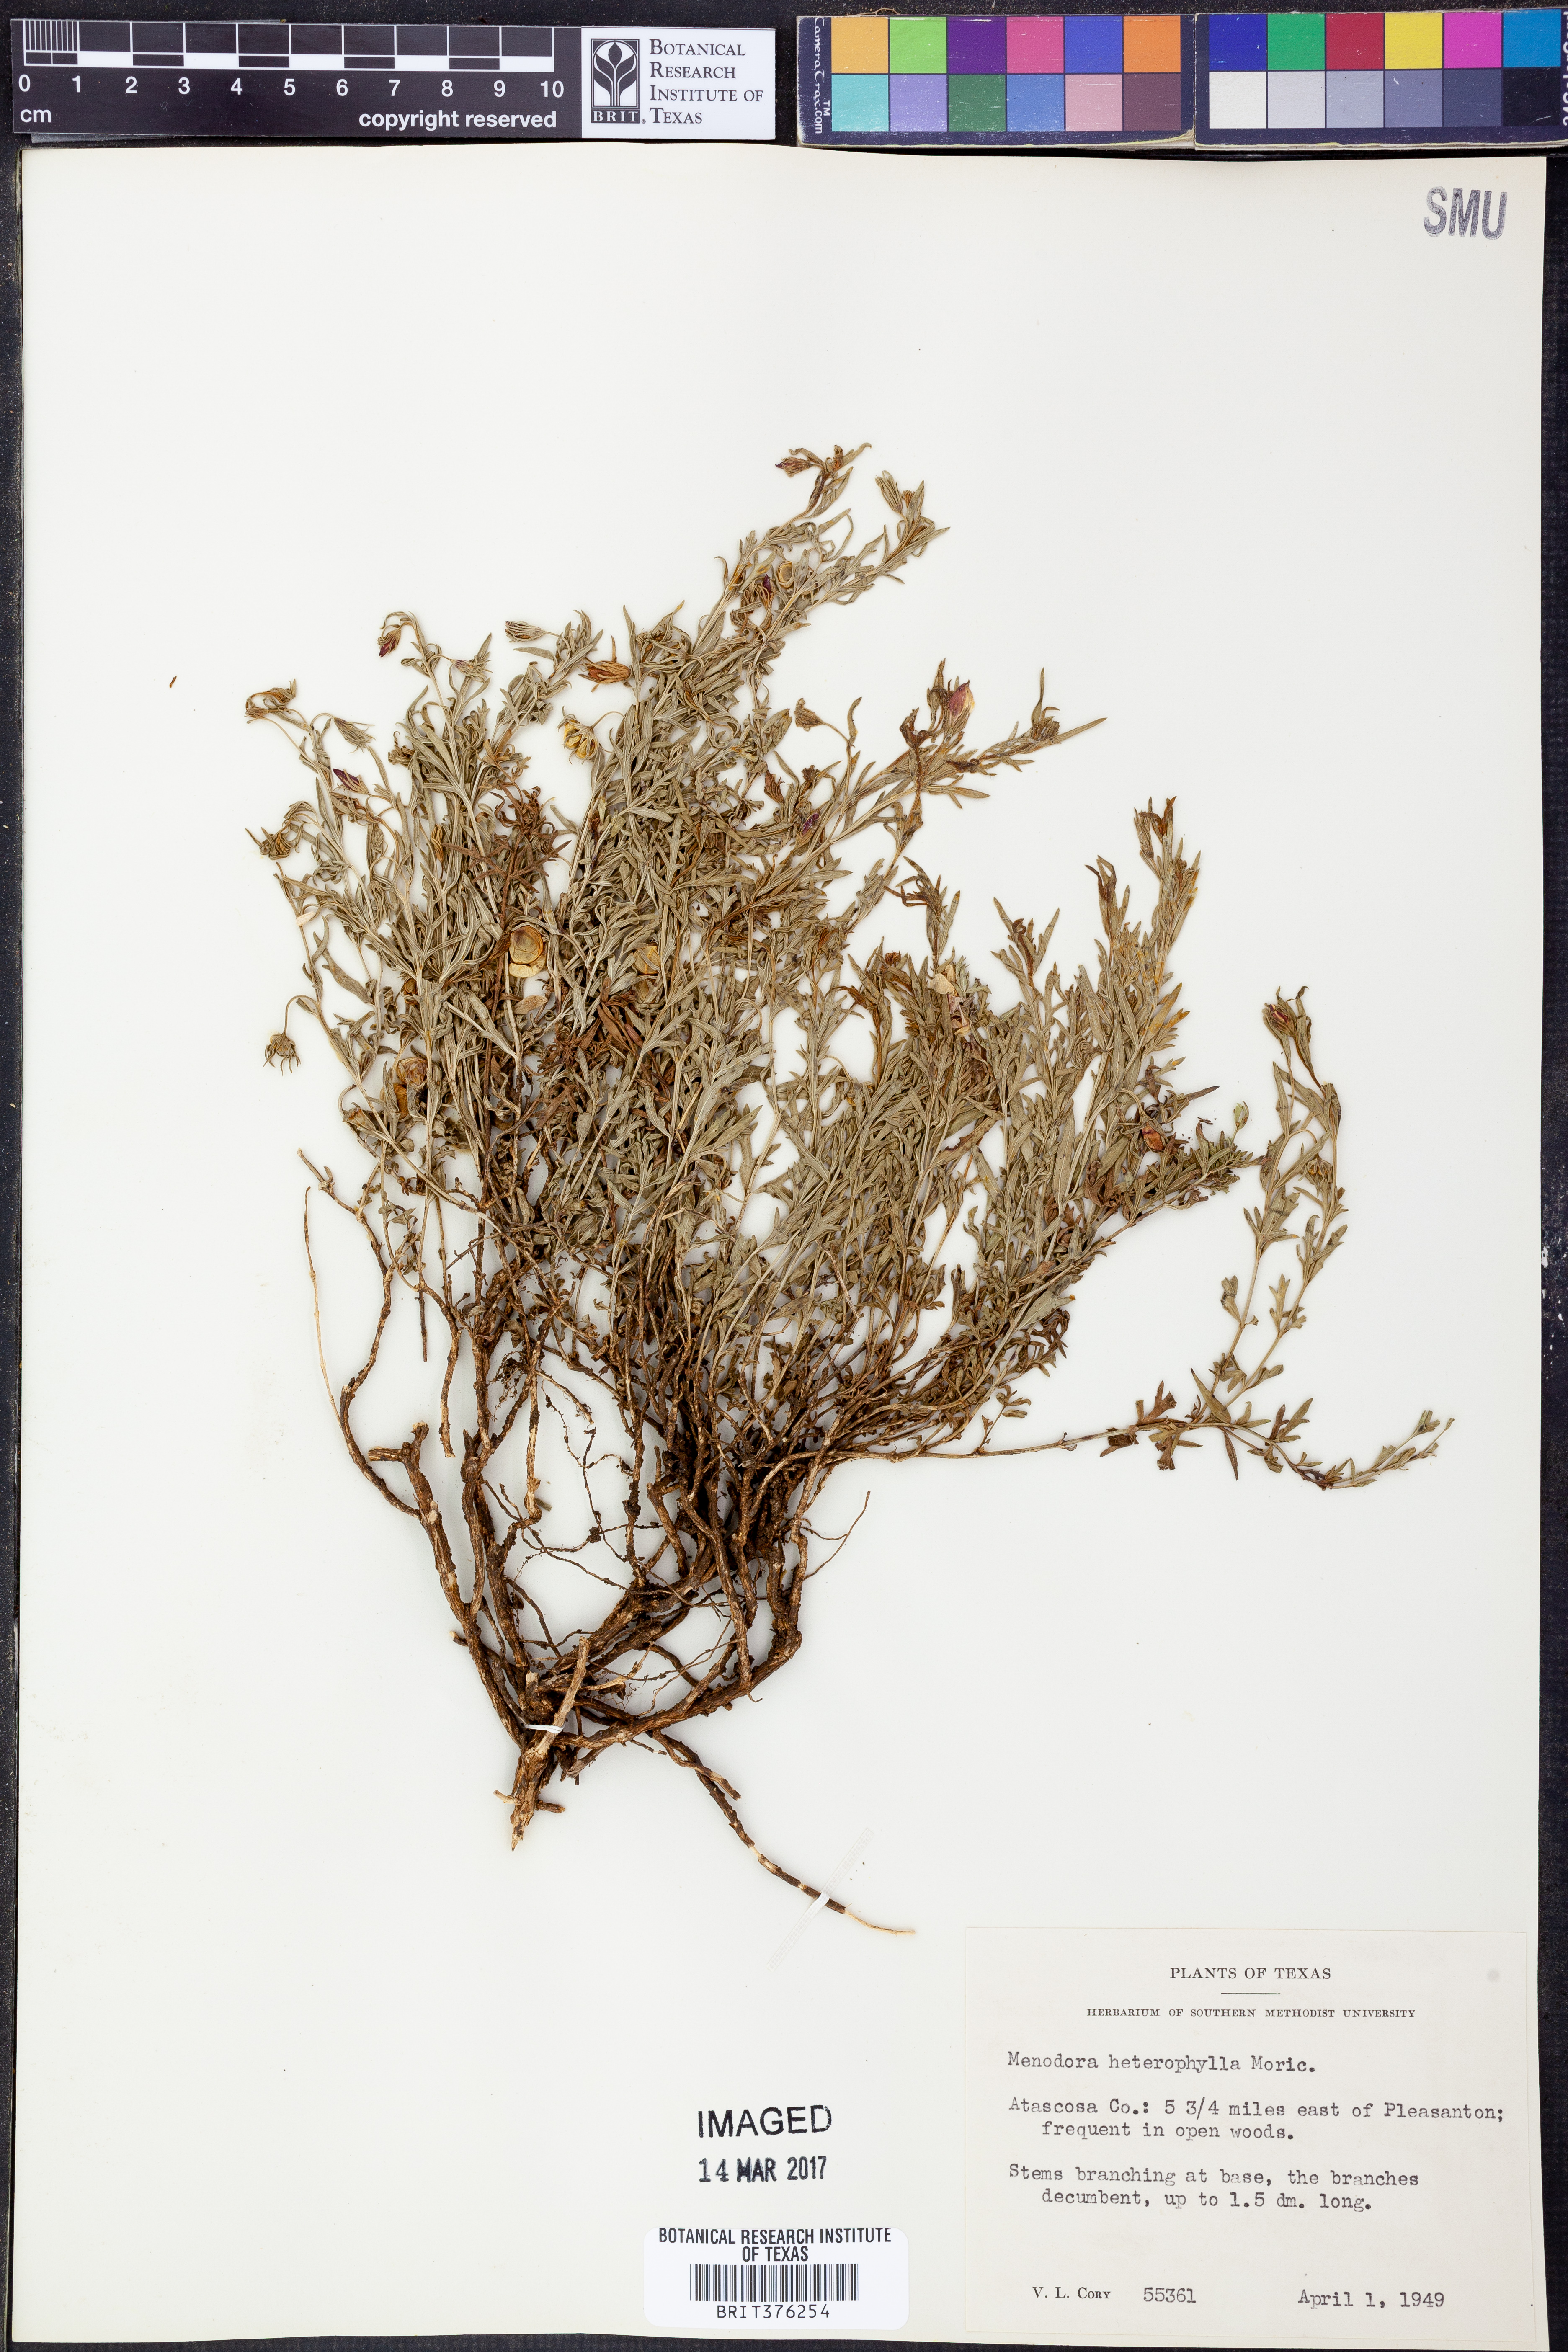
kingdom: Plantae
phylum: Tracheophyta
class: Magnoliopsida
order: Lamiales
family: Oleaceae
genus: Menodora
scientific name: Menodora heterophylla
